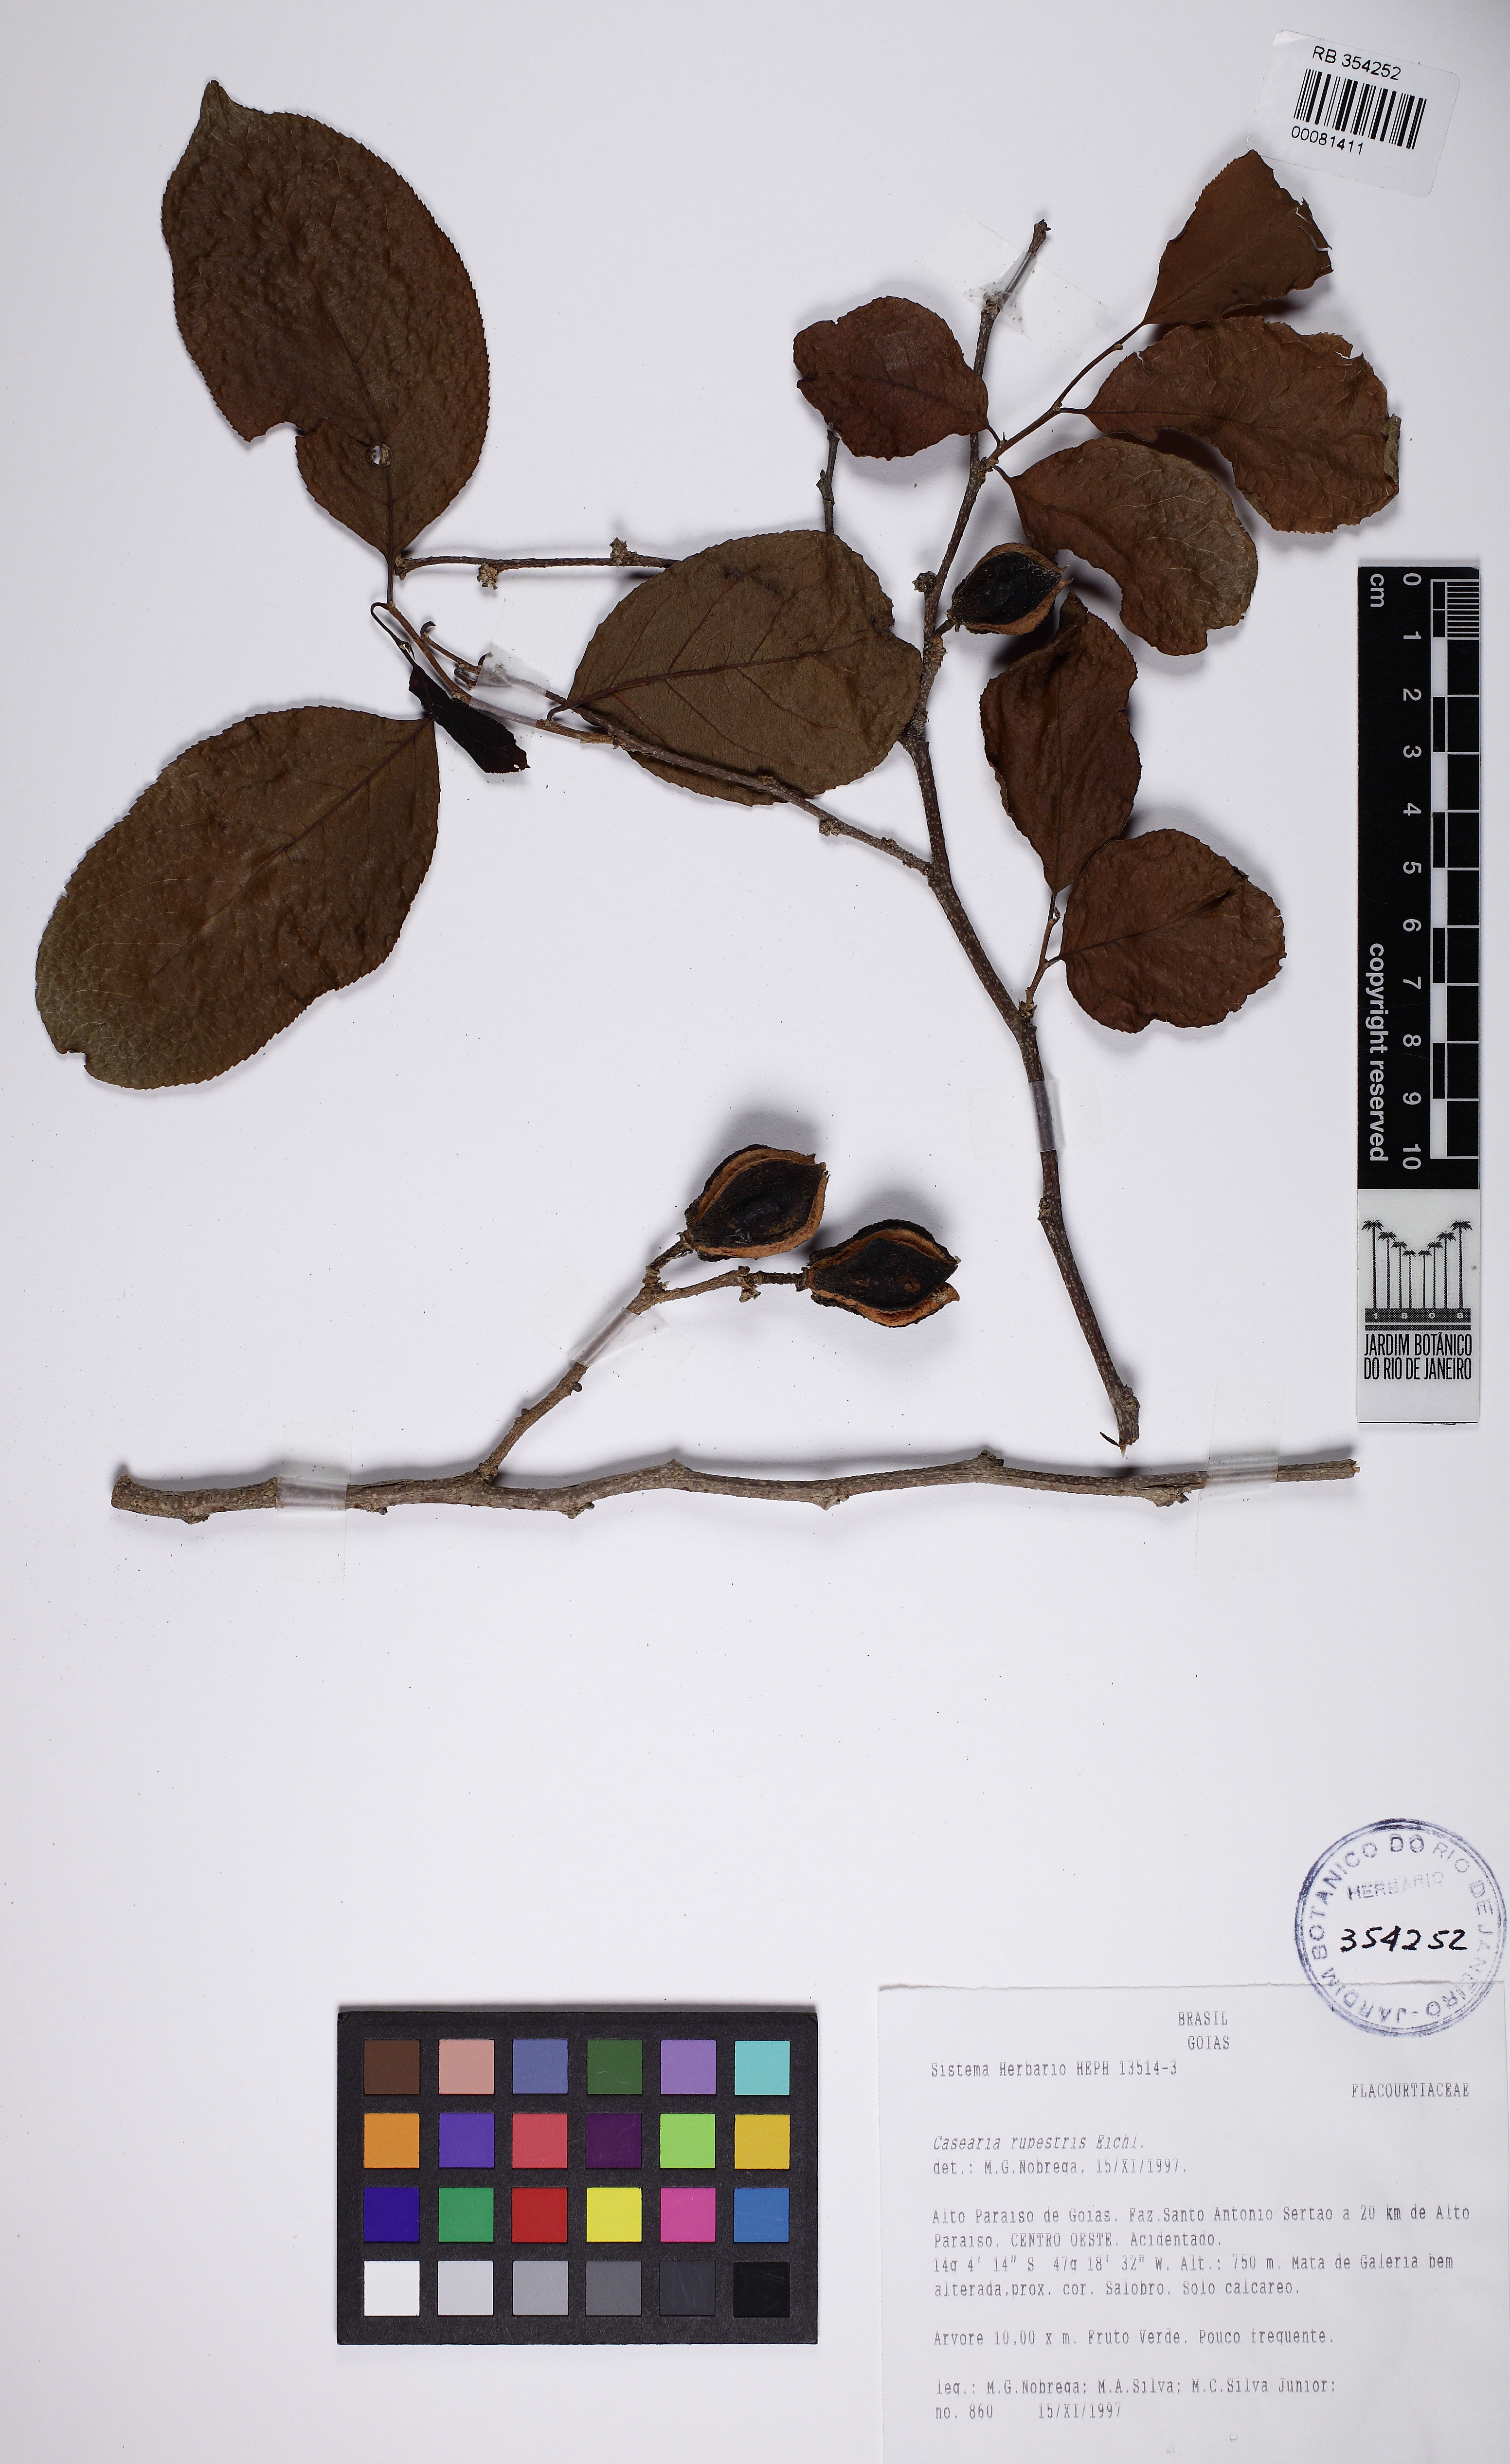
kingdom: Plantae
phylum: Tracheophyta
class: Magnoliopsida
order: Malpighiales
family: Salicaceae
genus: Casearia
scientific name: Casearia rupestris
